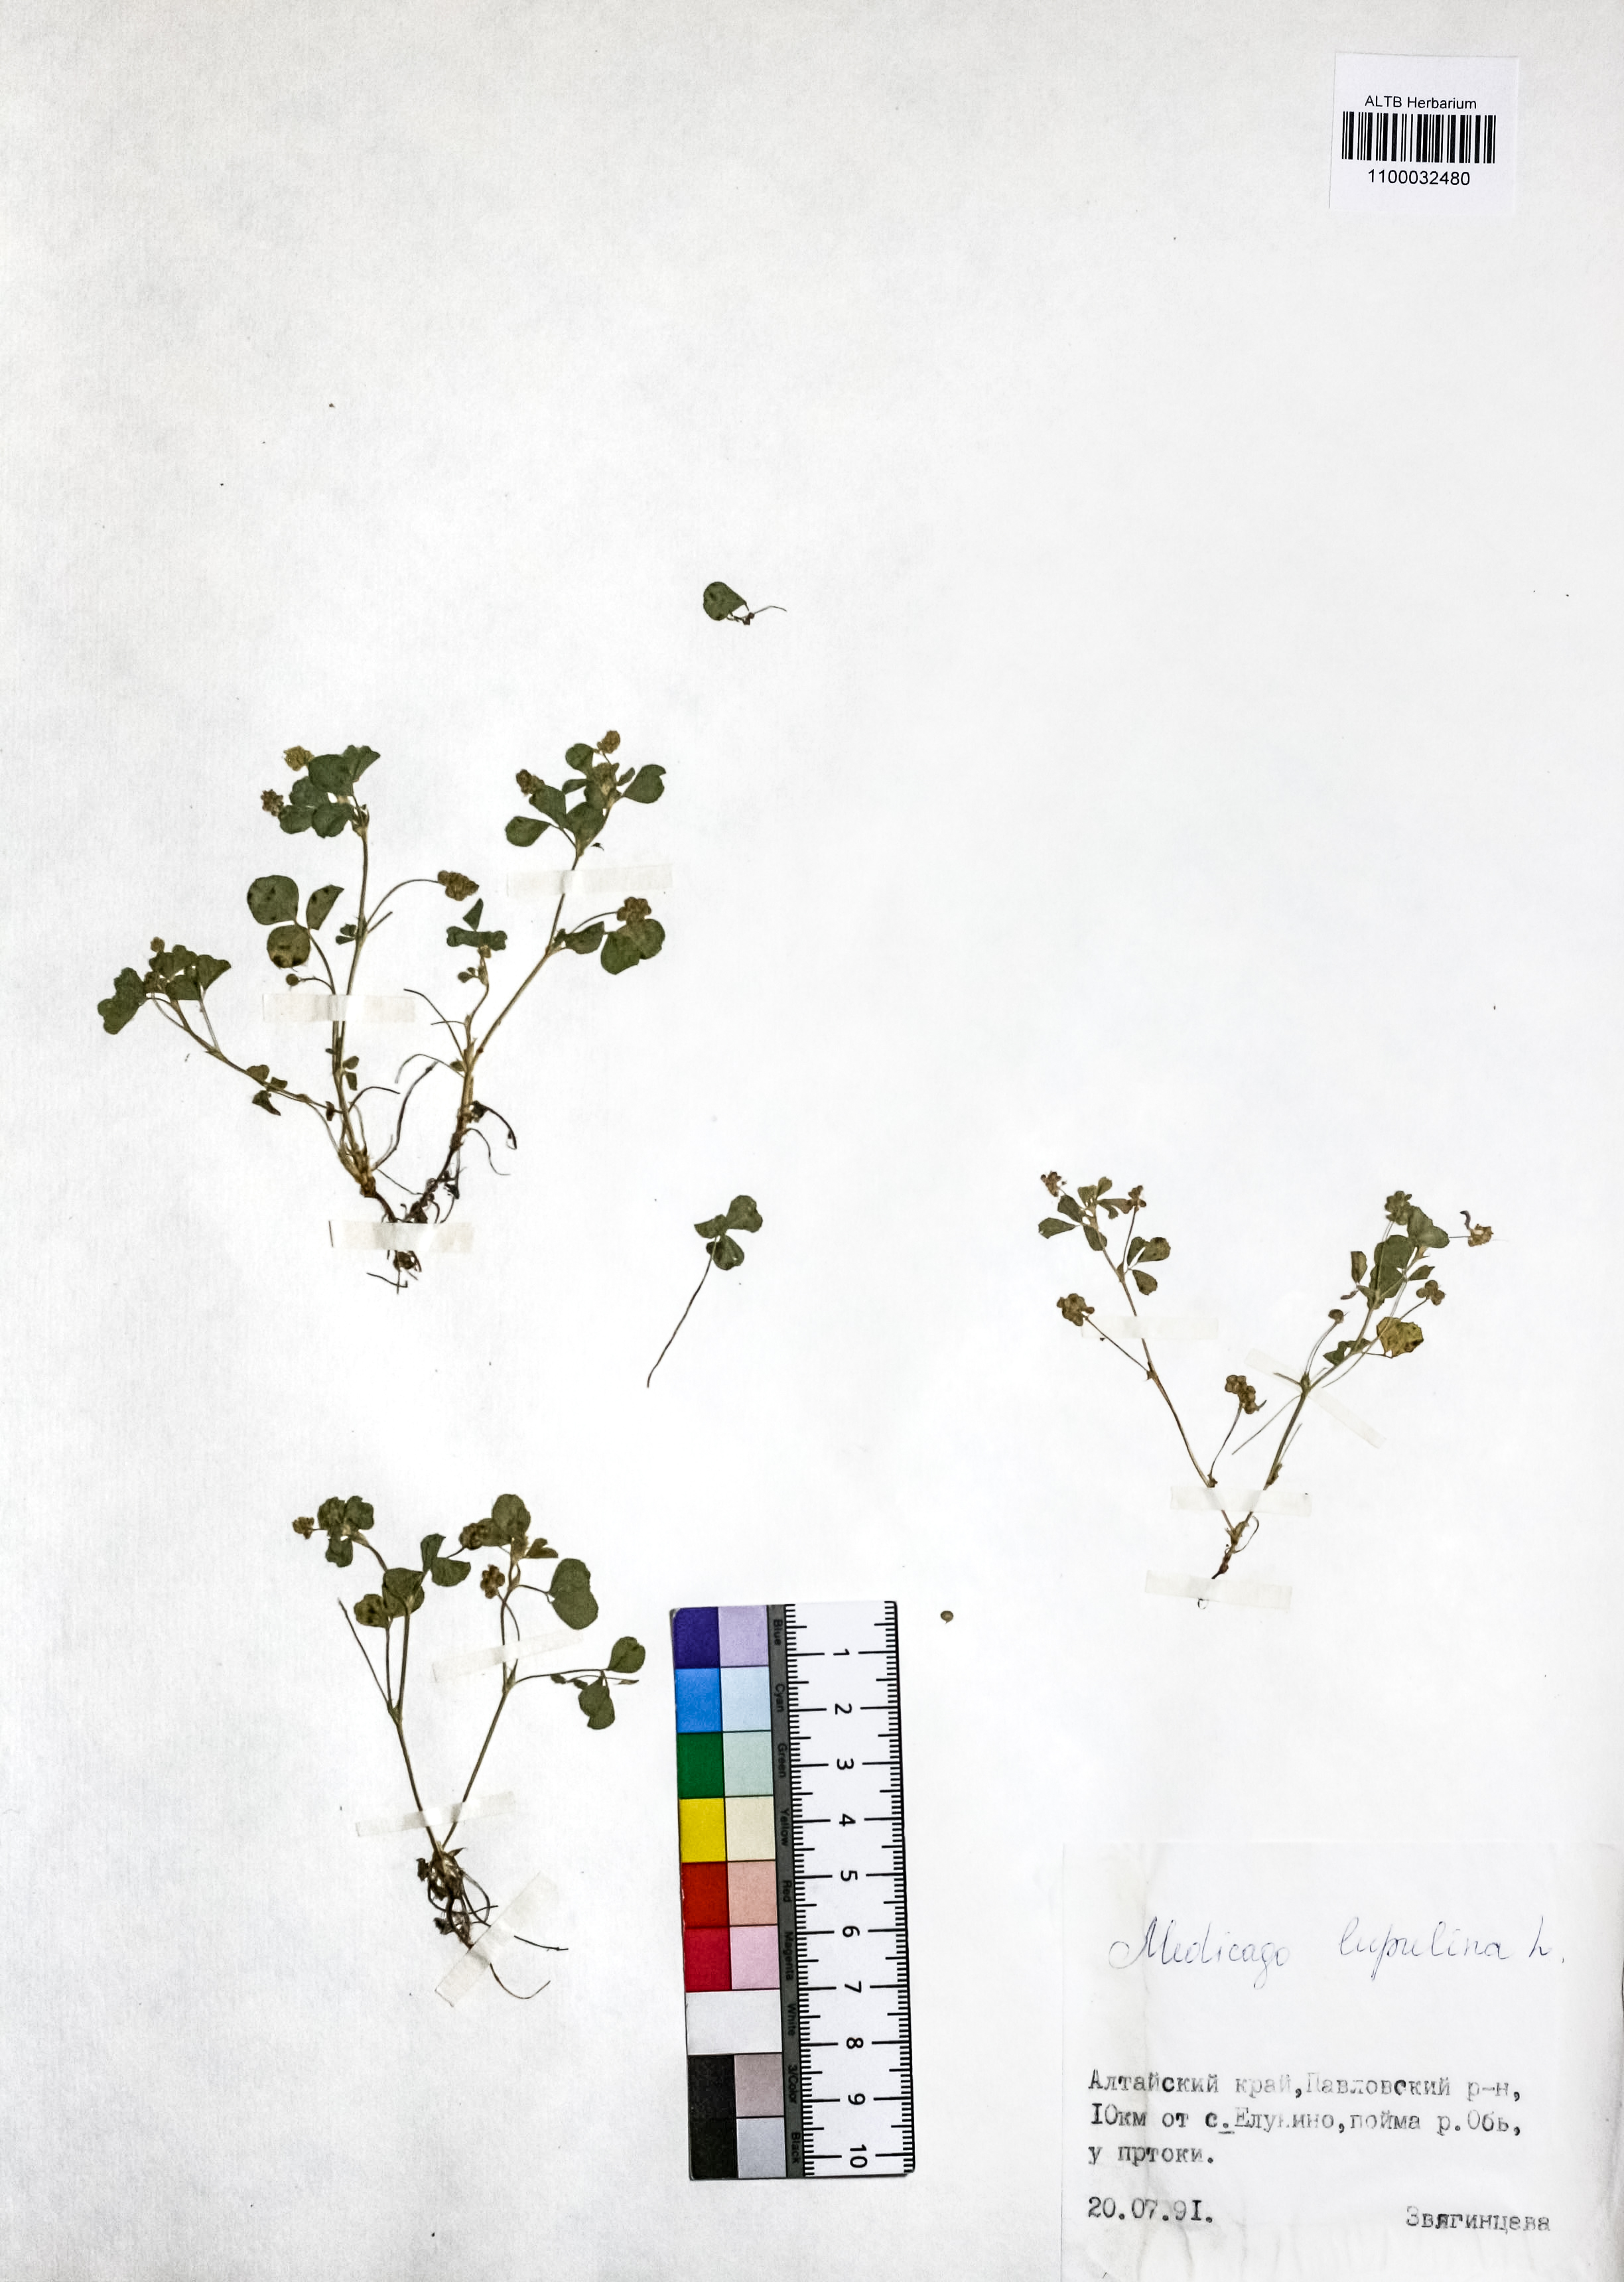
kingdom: Plantae
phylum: Tracheophyta
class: Magnoliopsida
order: Fabales
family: Fabaceae
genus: Medicago
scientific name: Medicago lupulina
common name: Black medick
